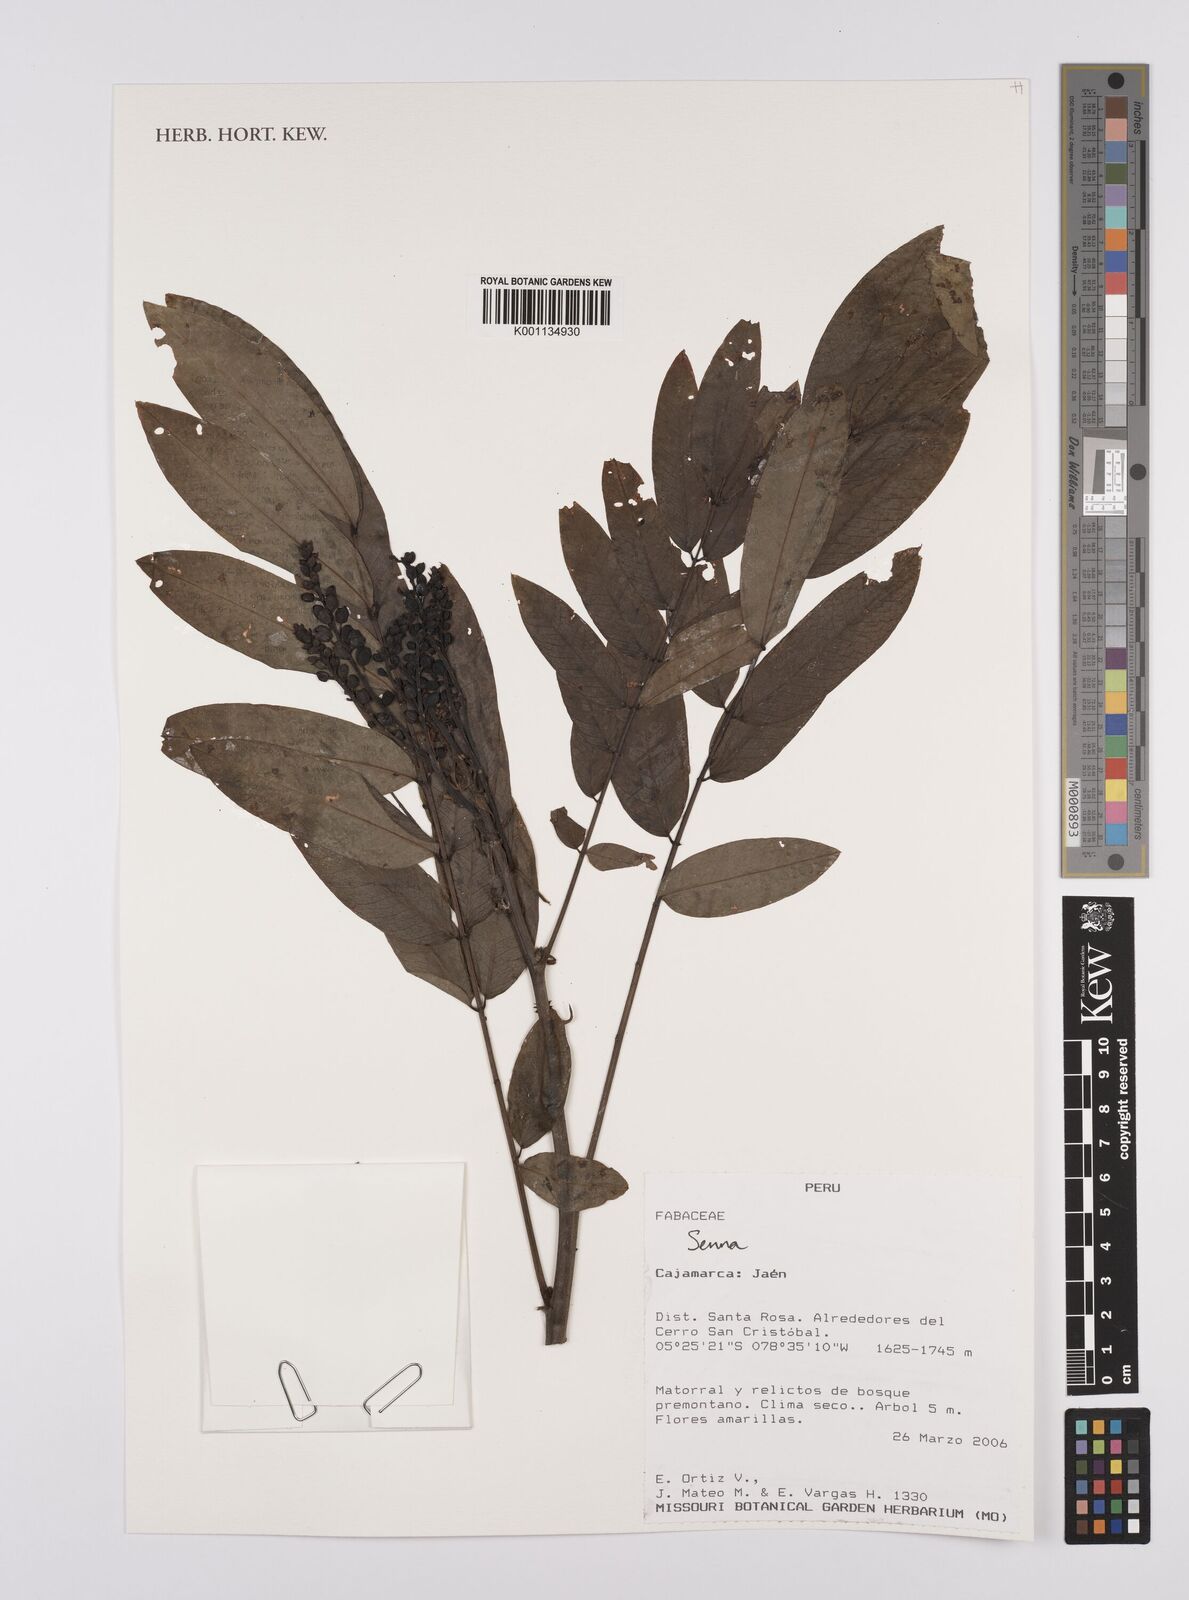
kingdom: Plantae
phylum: Tracheophyta
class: Magnoliopsida
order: Fabales
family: Fabaceae
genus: Senna
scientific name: Senna
